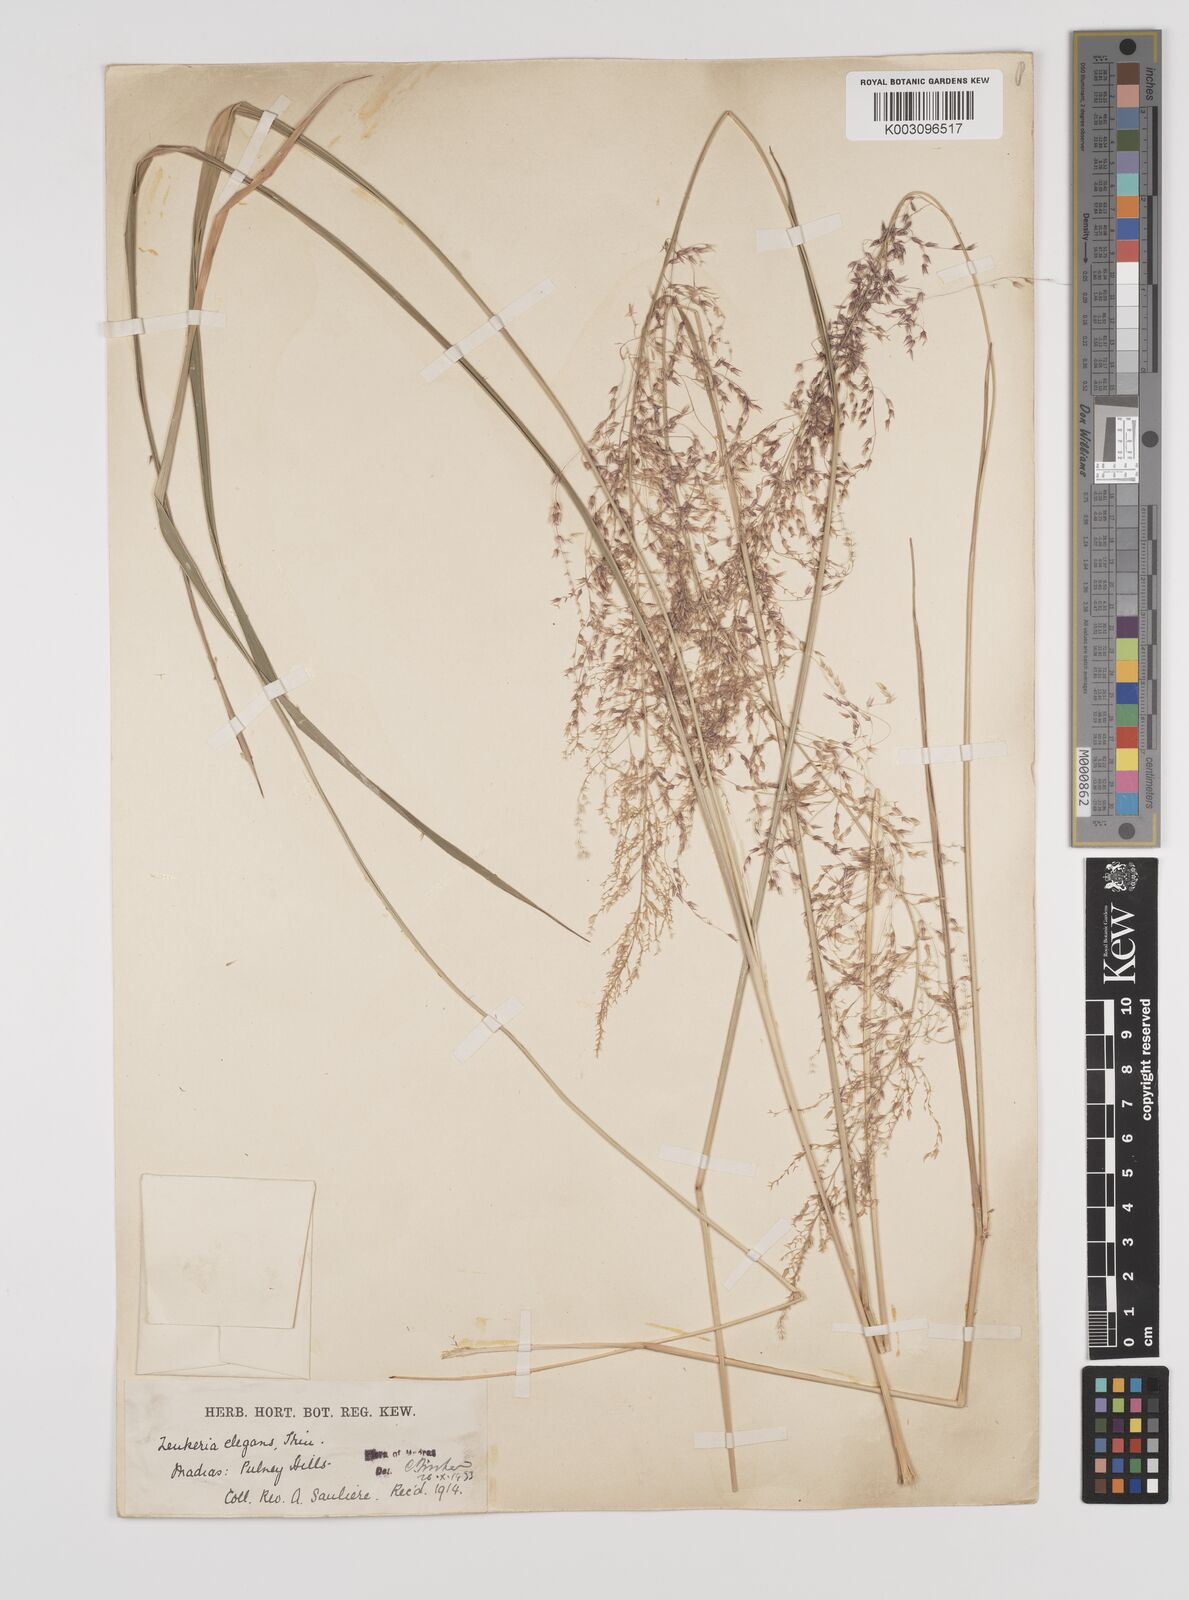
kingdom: Plantae
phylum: Tracheophyta
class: Liliopsida
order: Poales
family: Poaceae
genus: Zenkeria
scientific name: Zenkeria elegans
